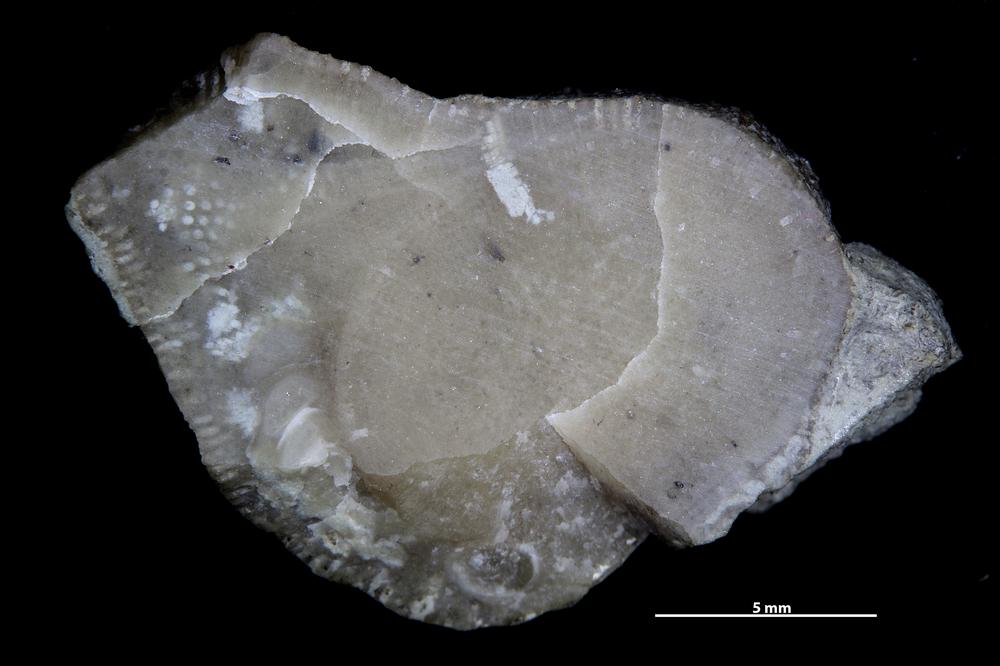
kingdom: Animalia
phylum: Annelida
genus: Anoigmaichnus
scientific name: Anoigmaichnus
